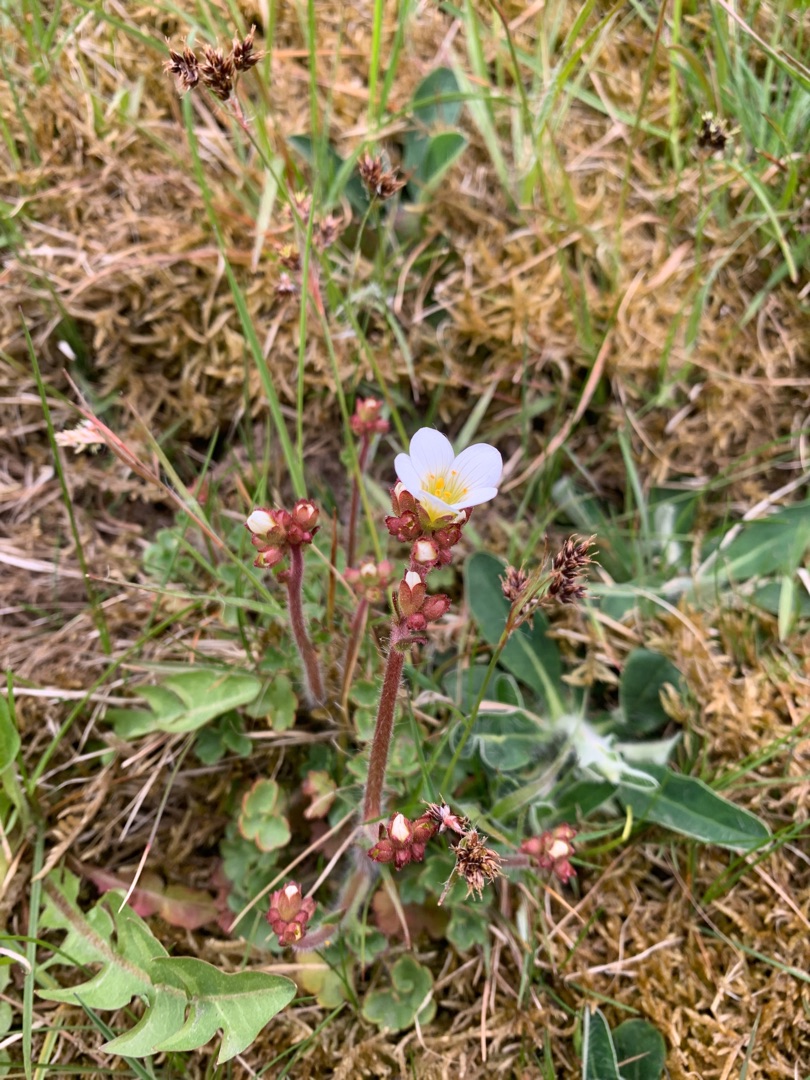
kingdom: Plantae
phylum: Tracheophyta
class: Magnoliopsida
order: Saxifragales
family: Saxifragaceae
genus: Saxifraga
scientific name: Saxifraga granulata
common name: Kornet stenbræk
